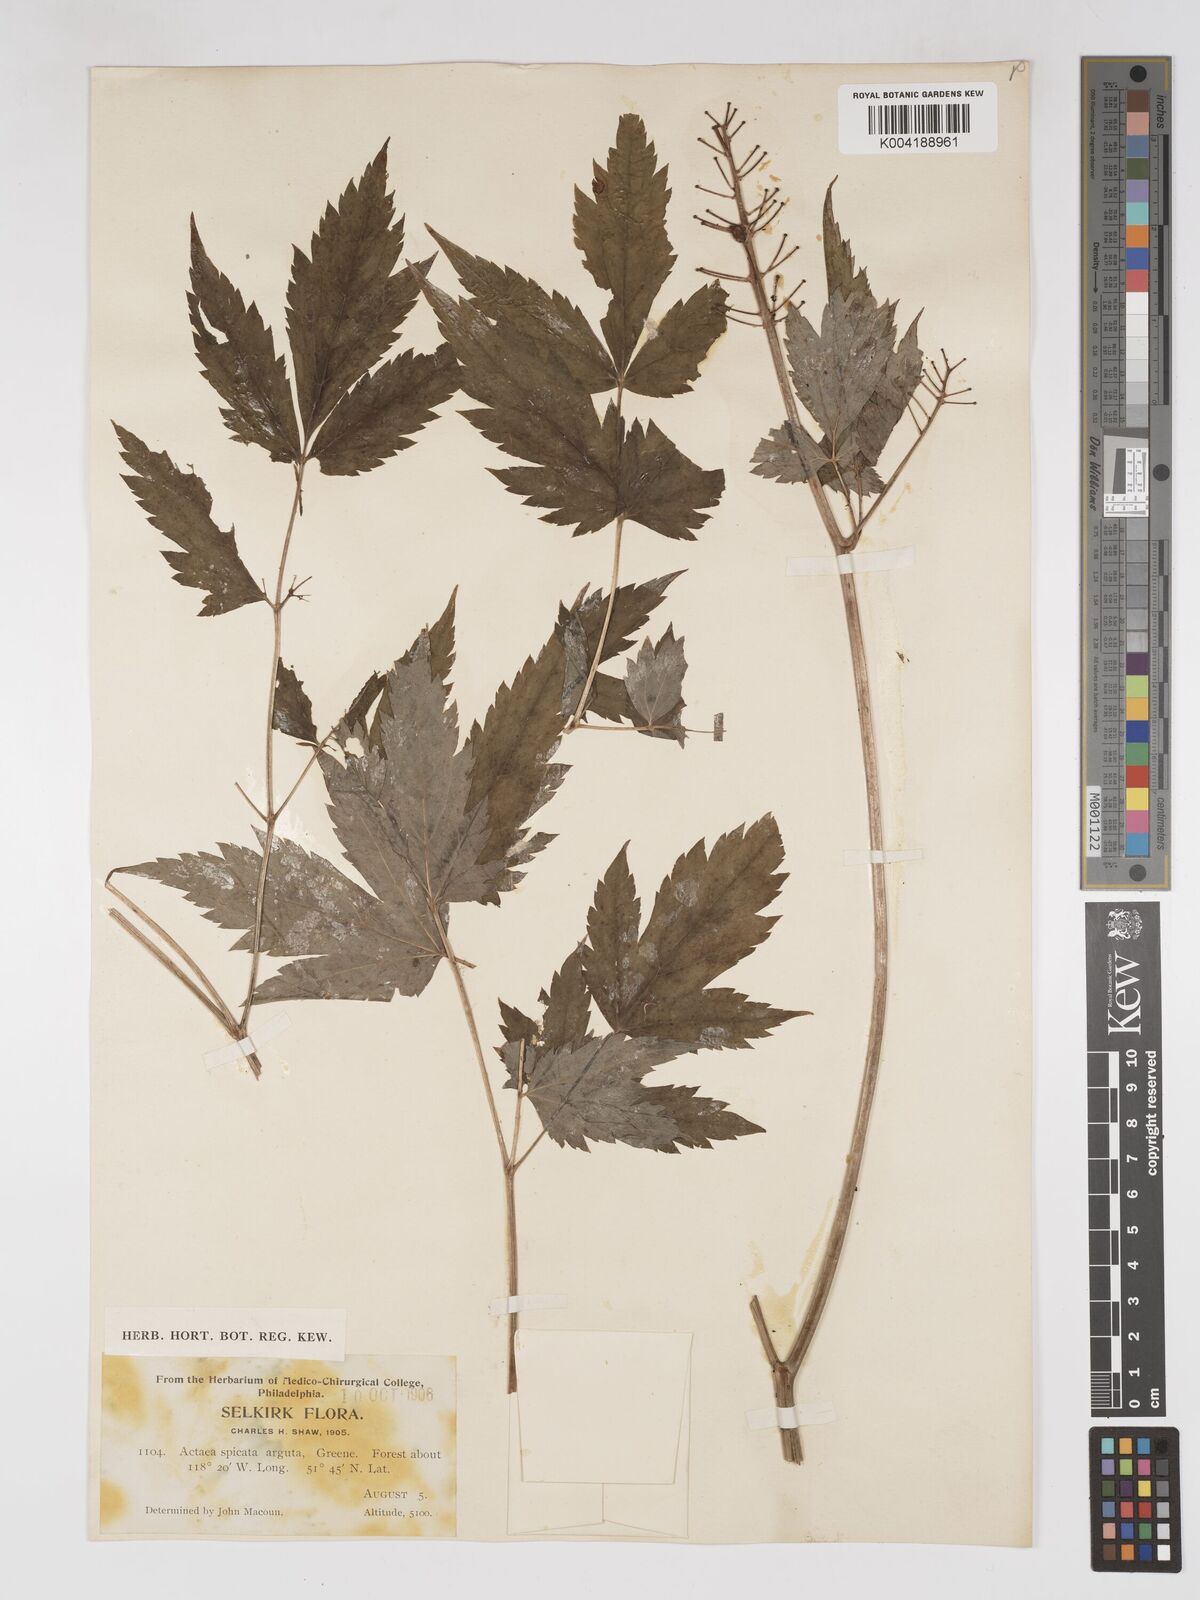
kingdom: Plantae
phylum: Tracheophyta
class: Magnoliopsida
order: Ranunculales
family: Ranunculaceae
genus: Actaea
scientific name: Actaea rubra
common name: Red baneberry
